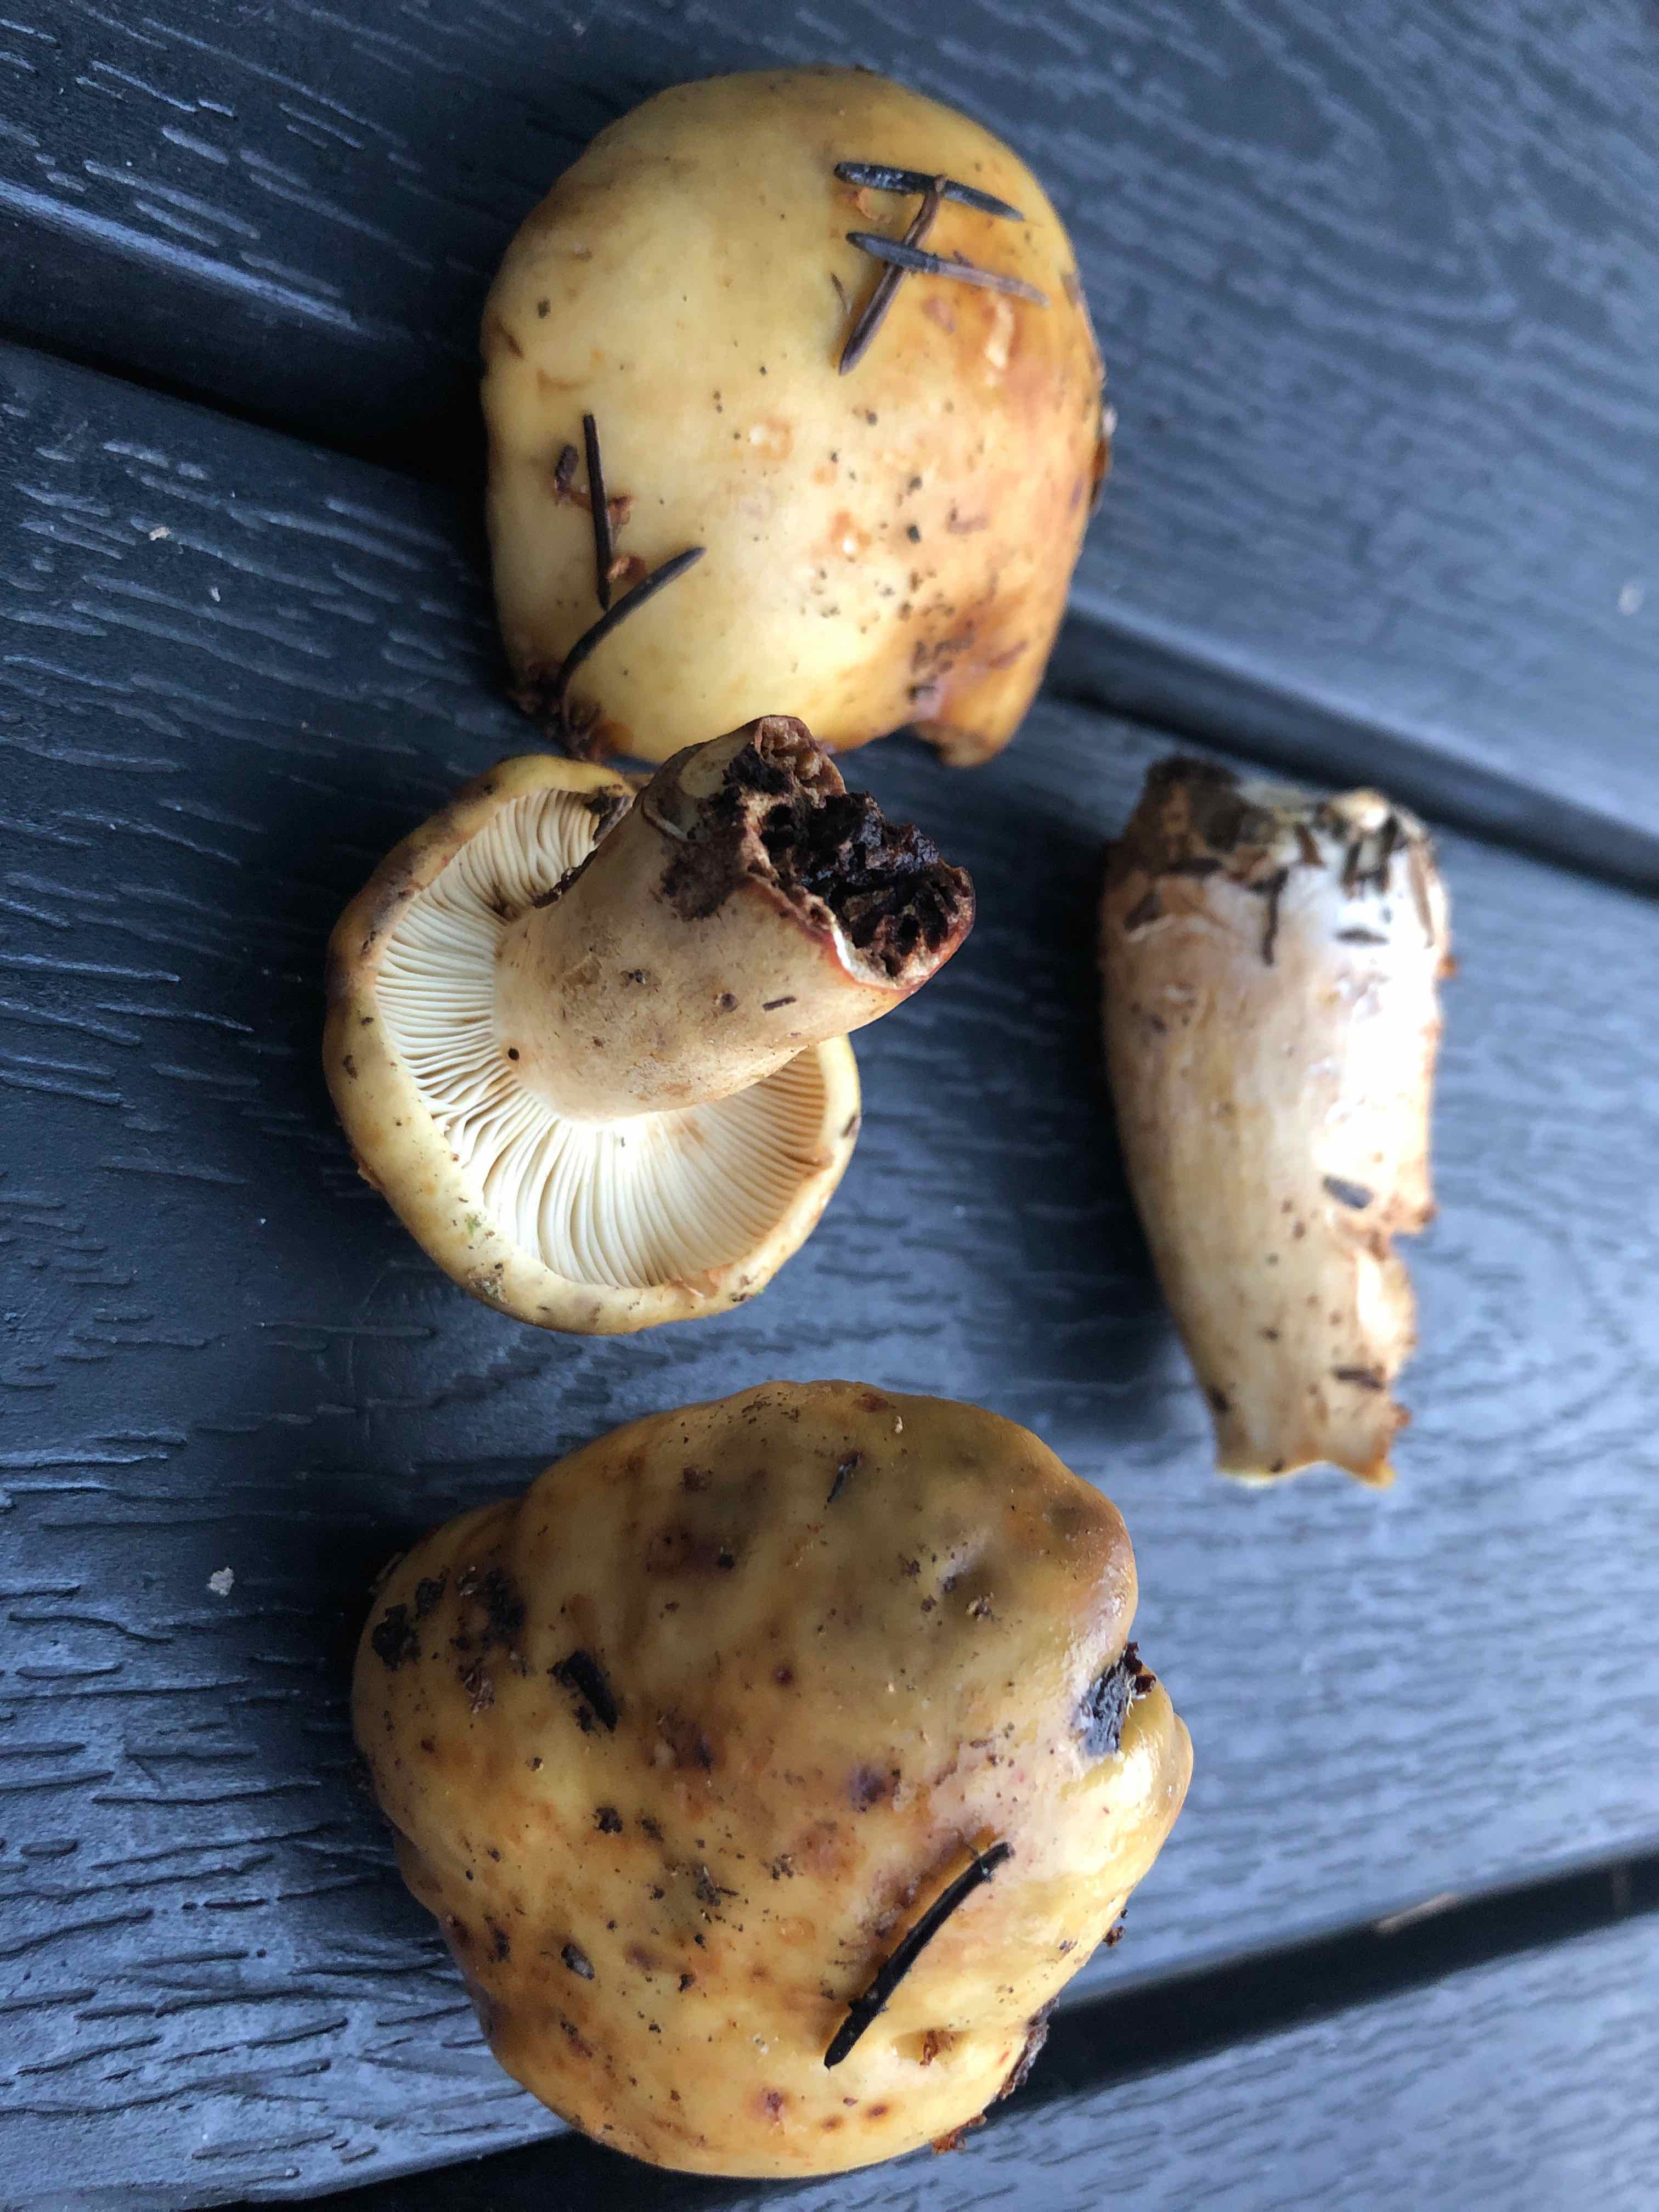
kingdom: Fungi
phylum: Basidiomycota
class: Agaricomycetes
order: Russulales
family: Russulaceae
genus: Russula
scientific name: Russula
